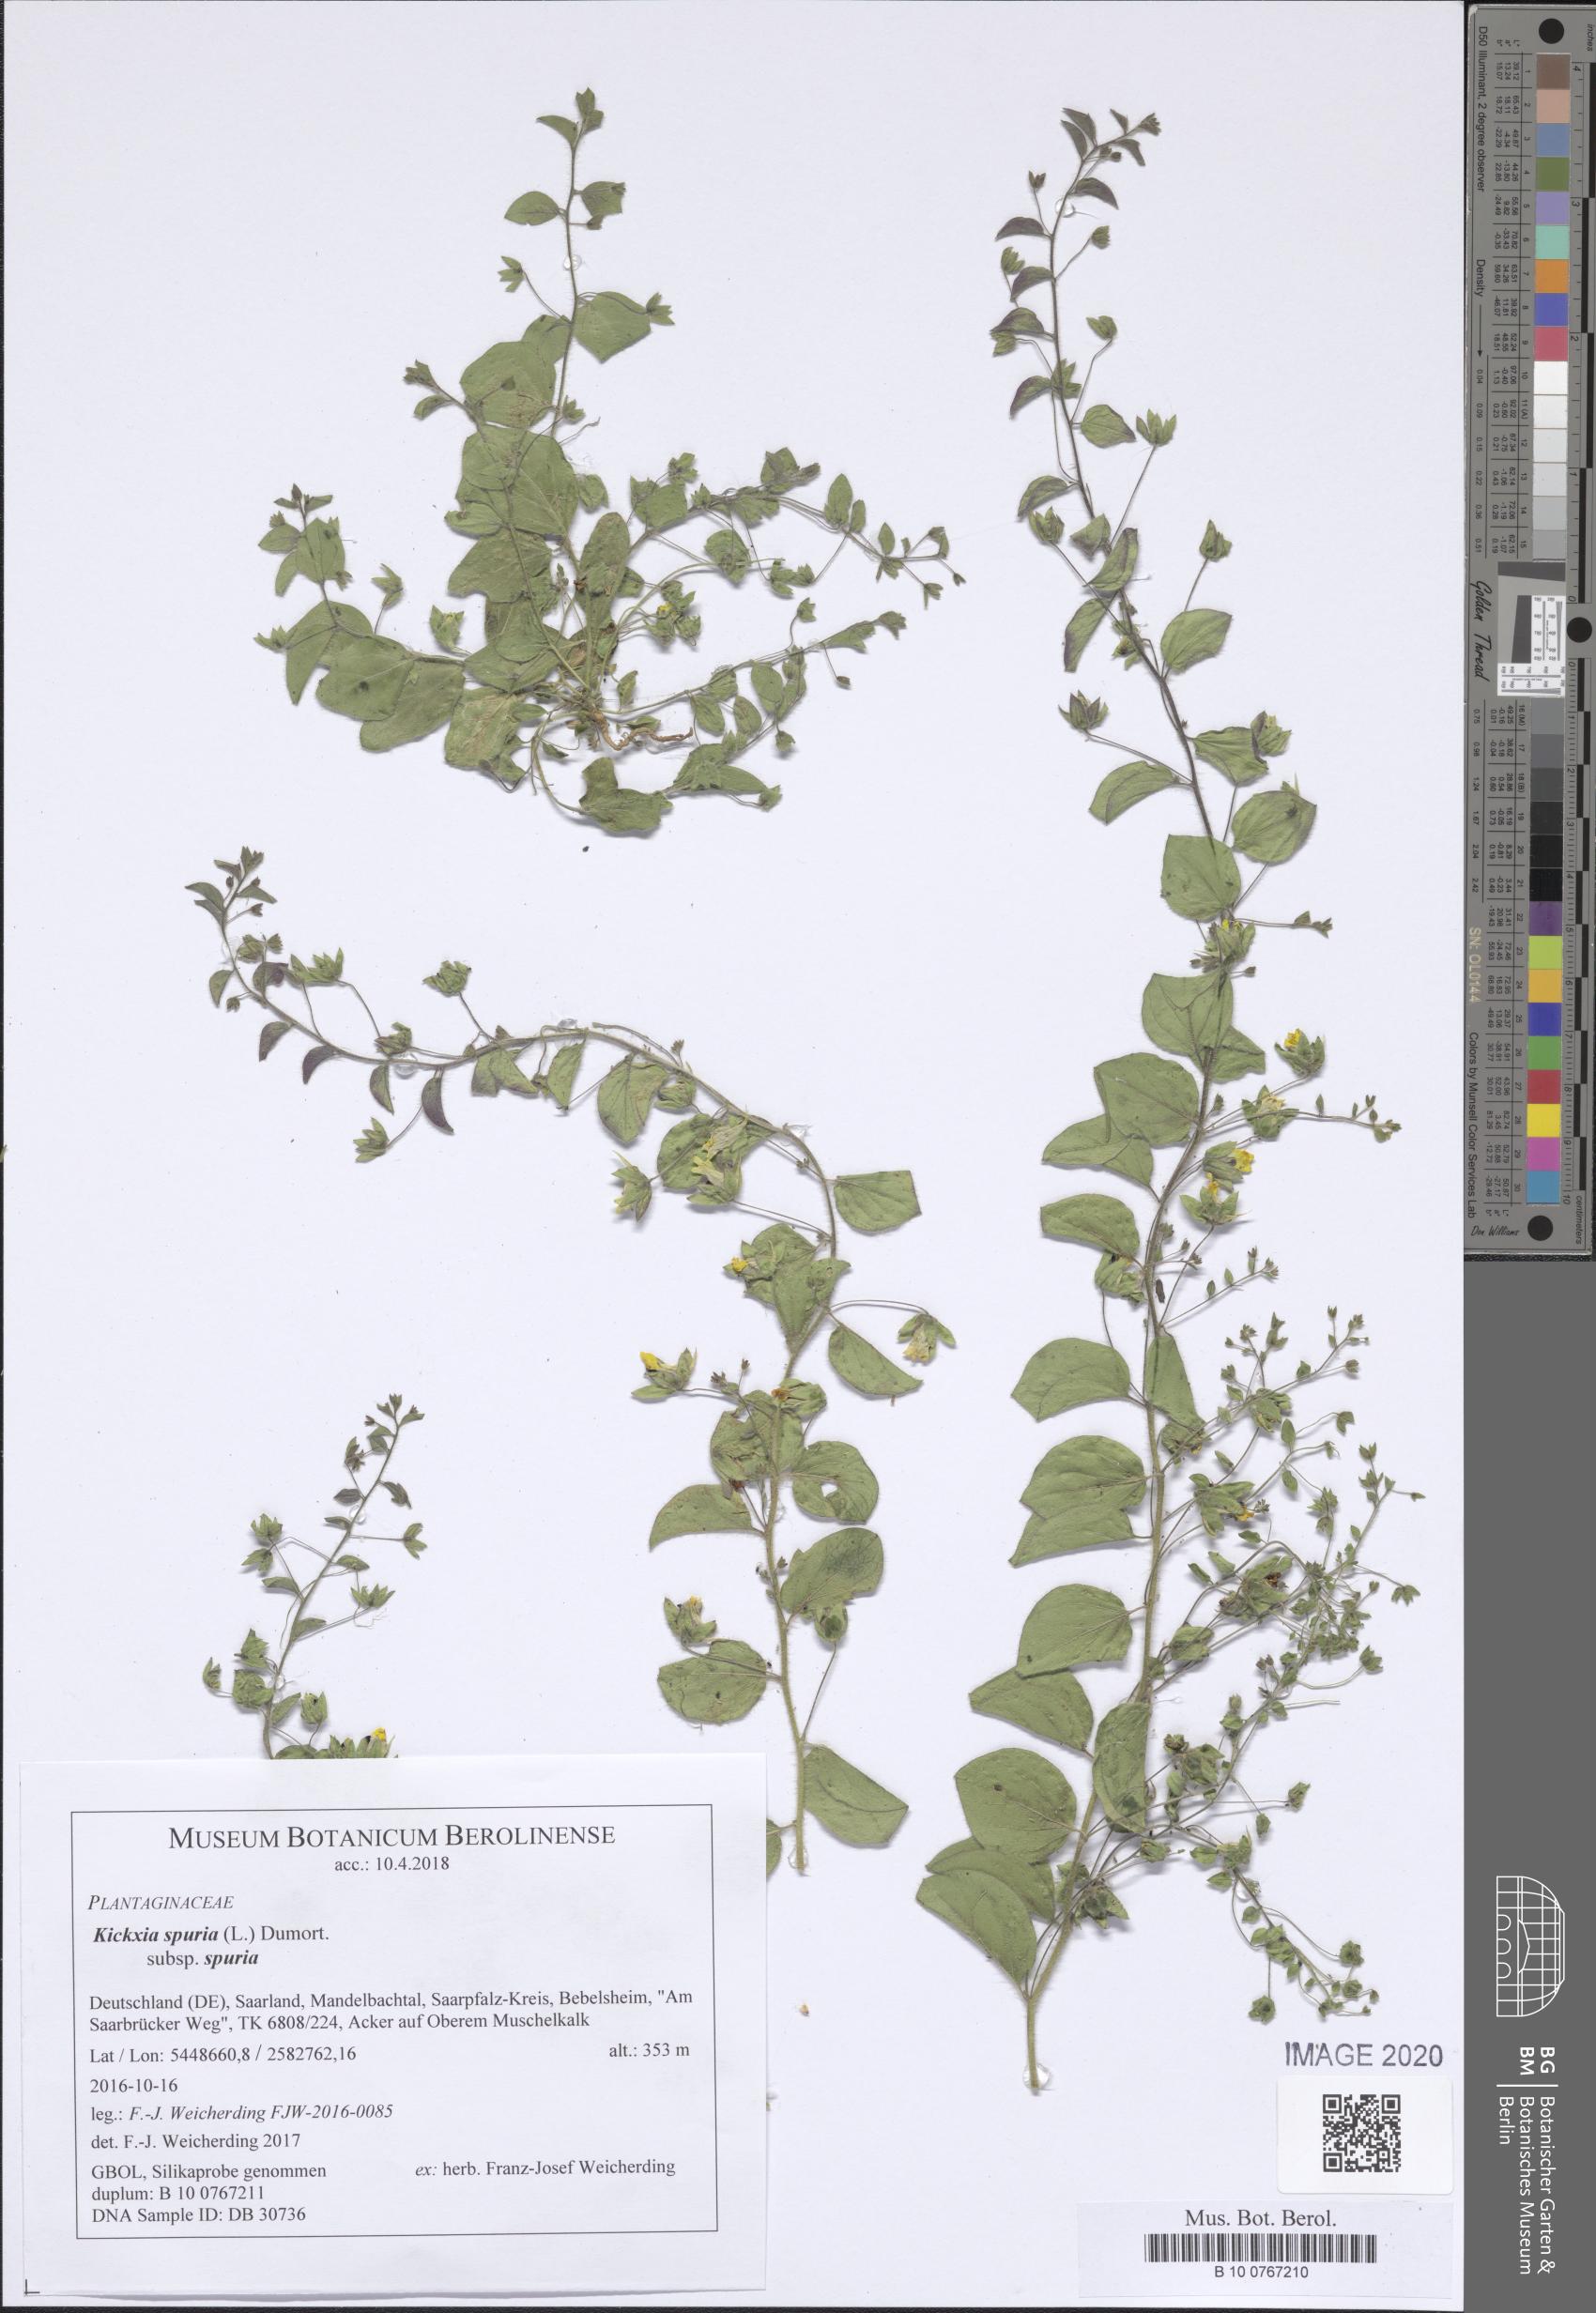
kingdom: Plantae
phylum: Tracheophyta
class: Magnoliopsida
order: Lamiales
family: Plantaginaceae
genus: Kickxia
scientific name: Kickxia spuria
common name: Round-leaved fluellen
